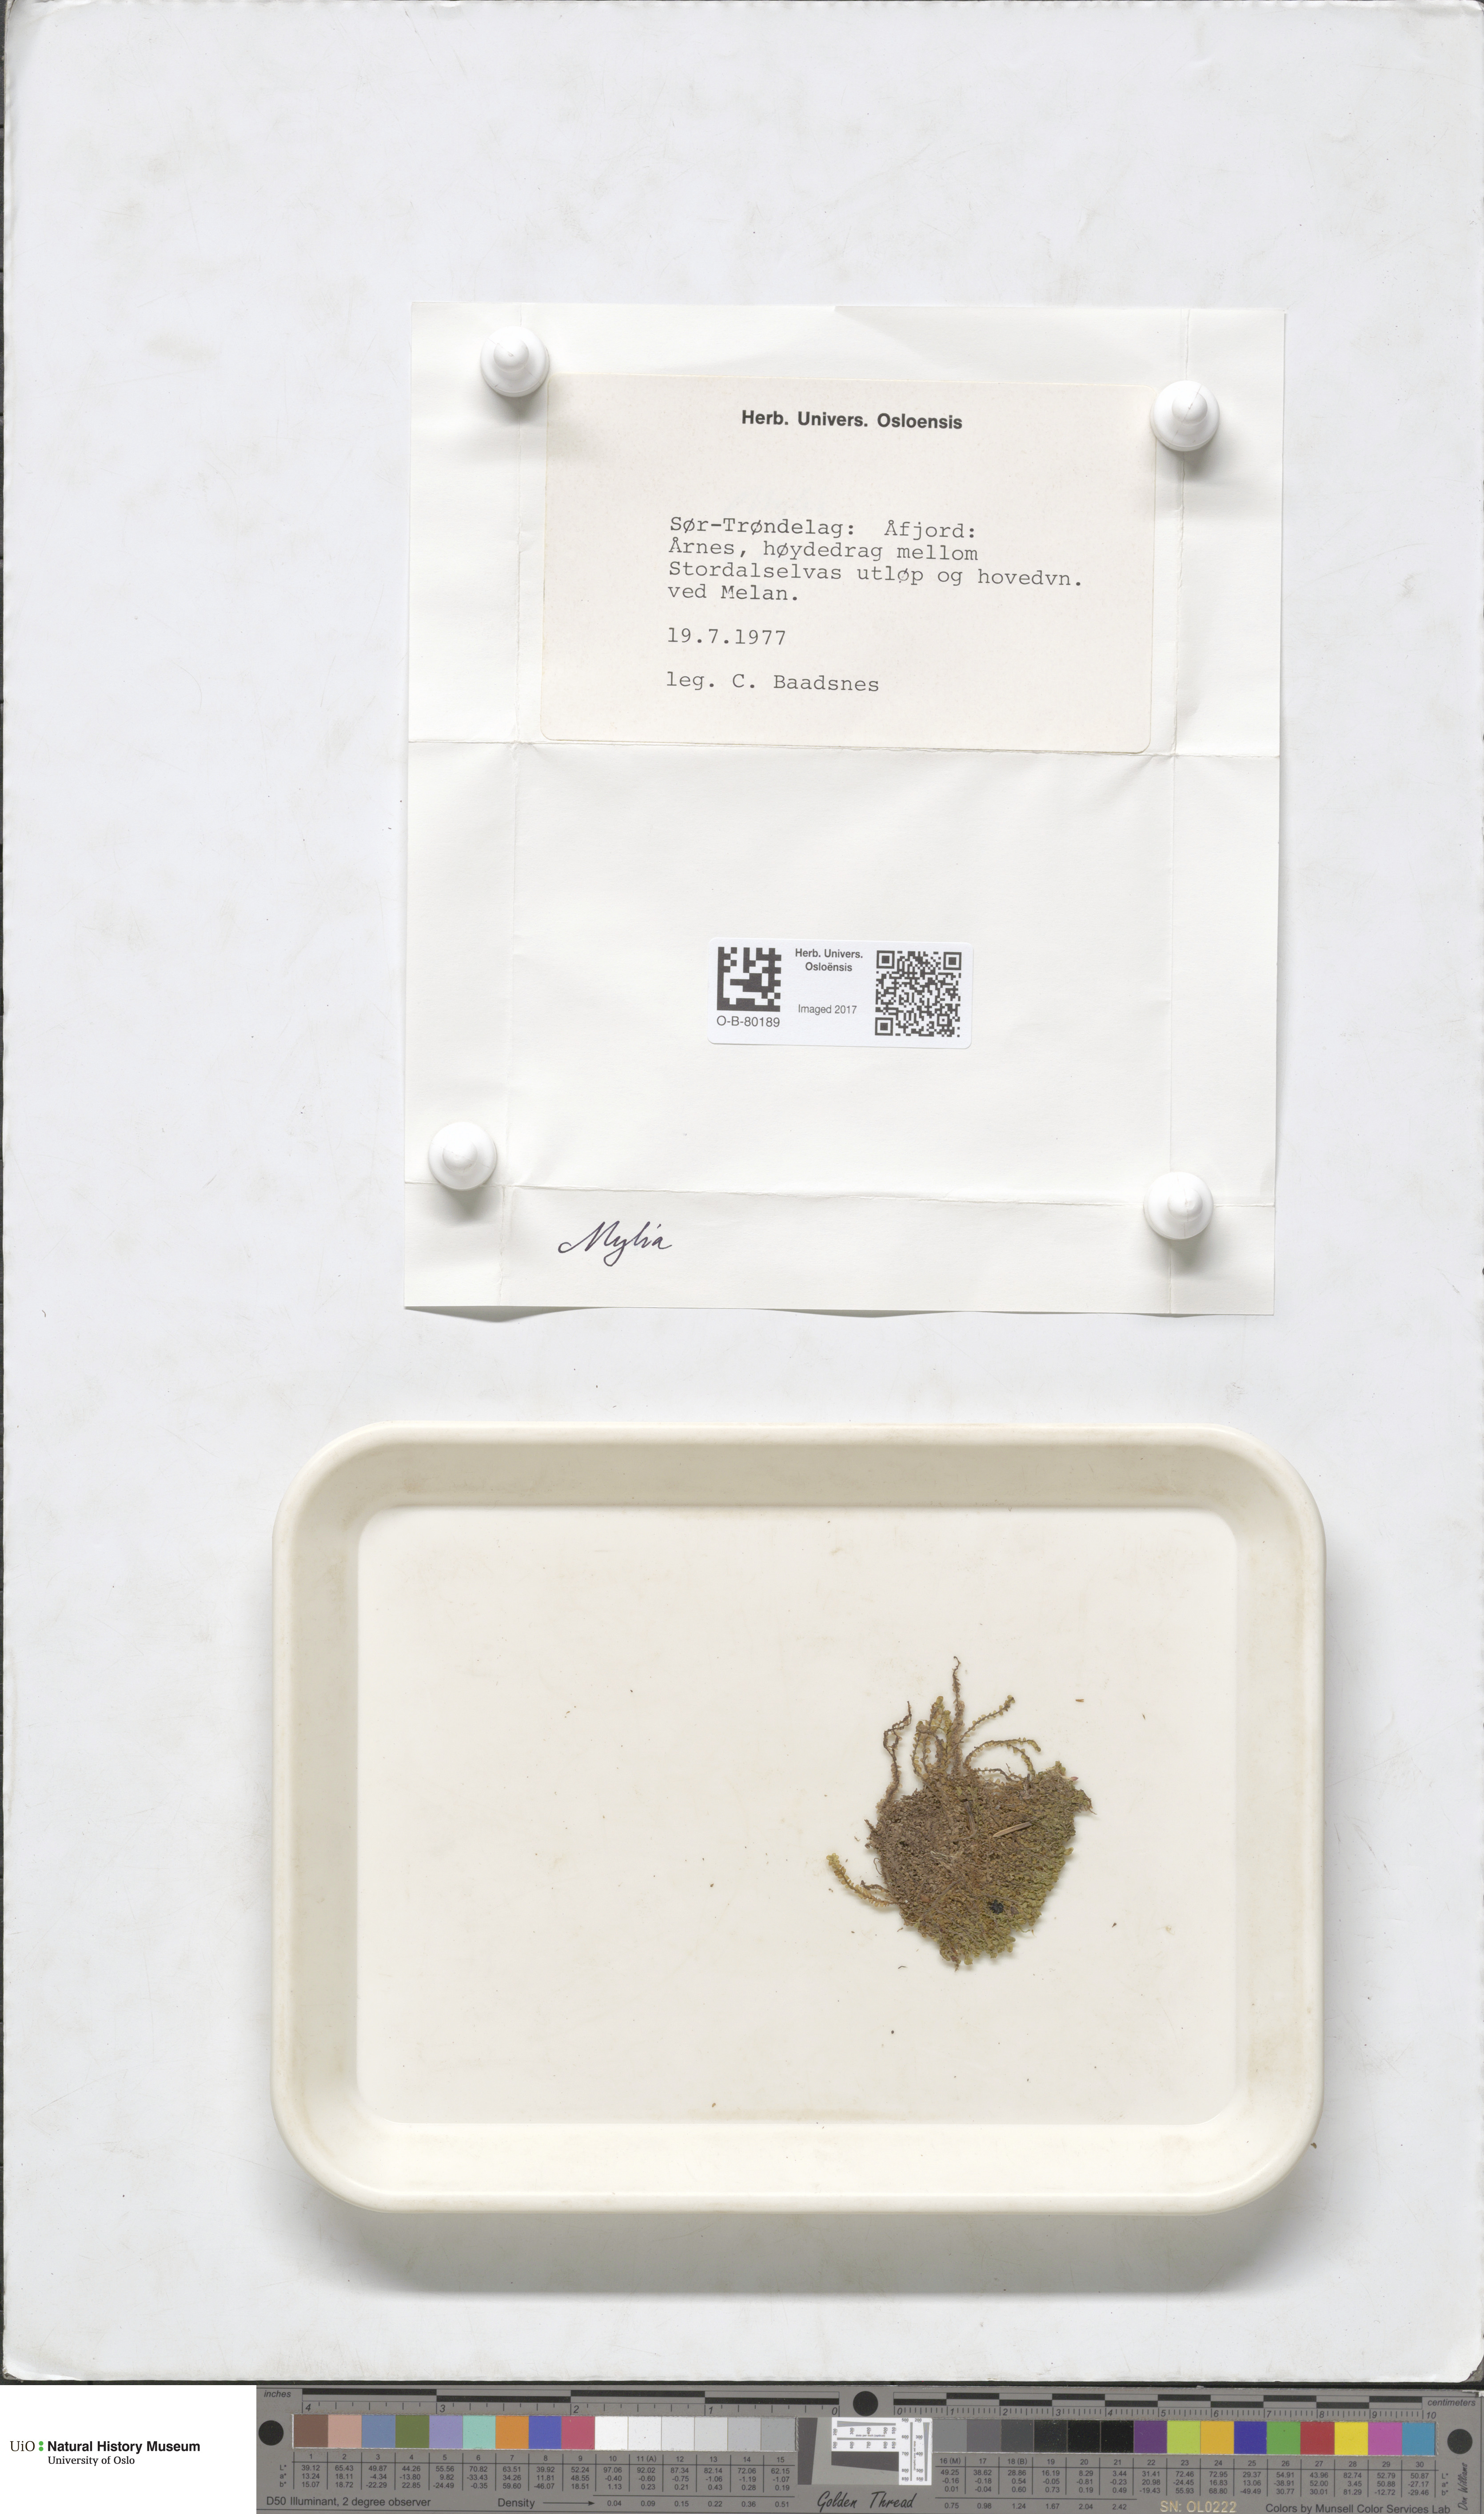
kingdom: Plantae
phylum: Marchantiophyta
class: Jungermanniopsida
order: Jungermanniales
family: Myliaceae
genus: Mylia
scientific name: Mylia
